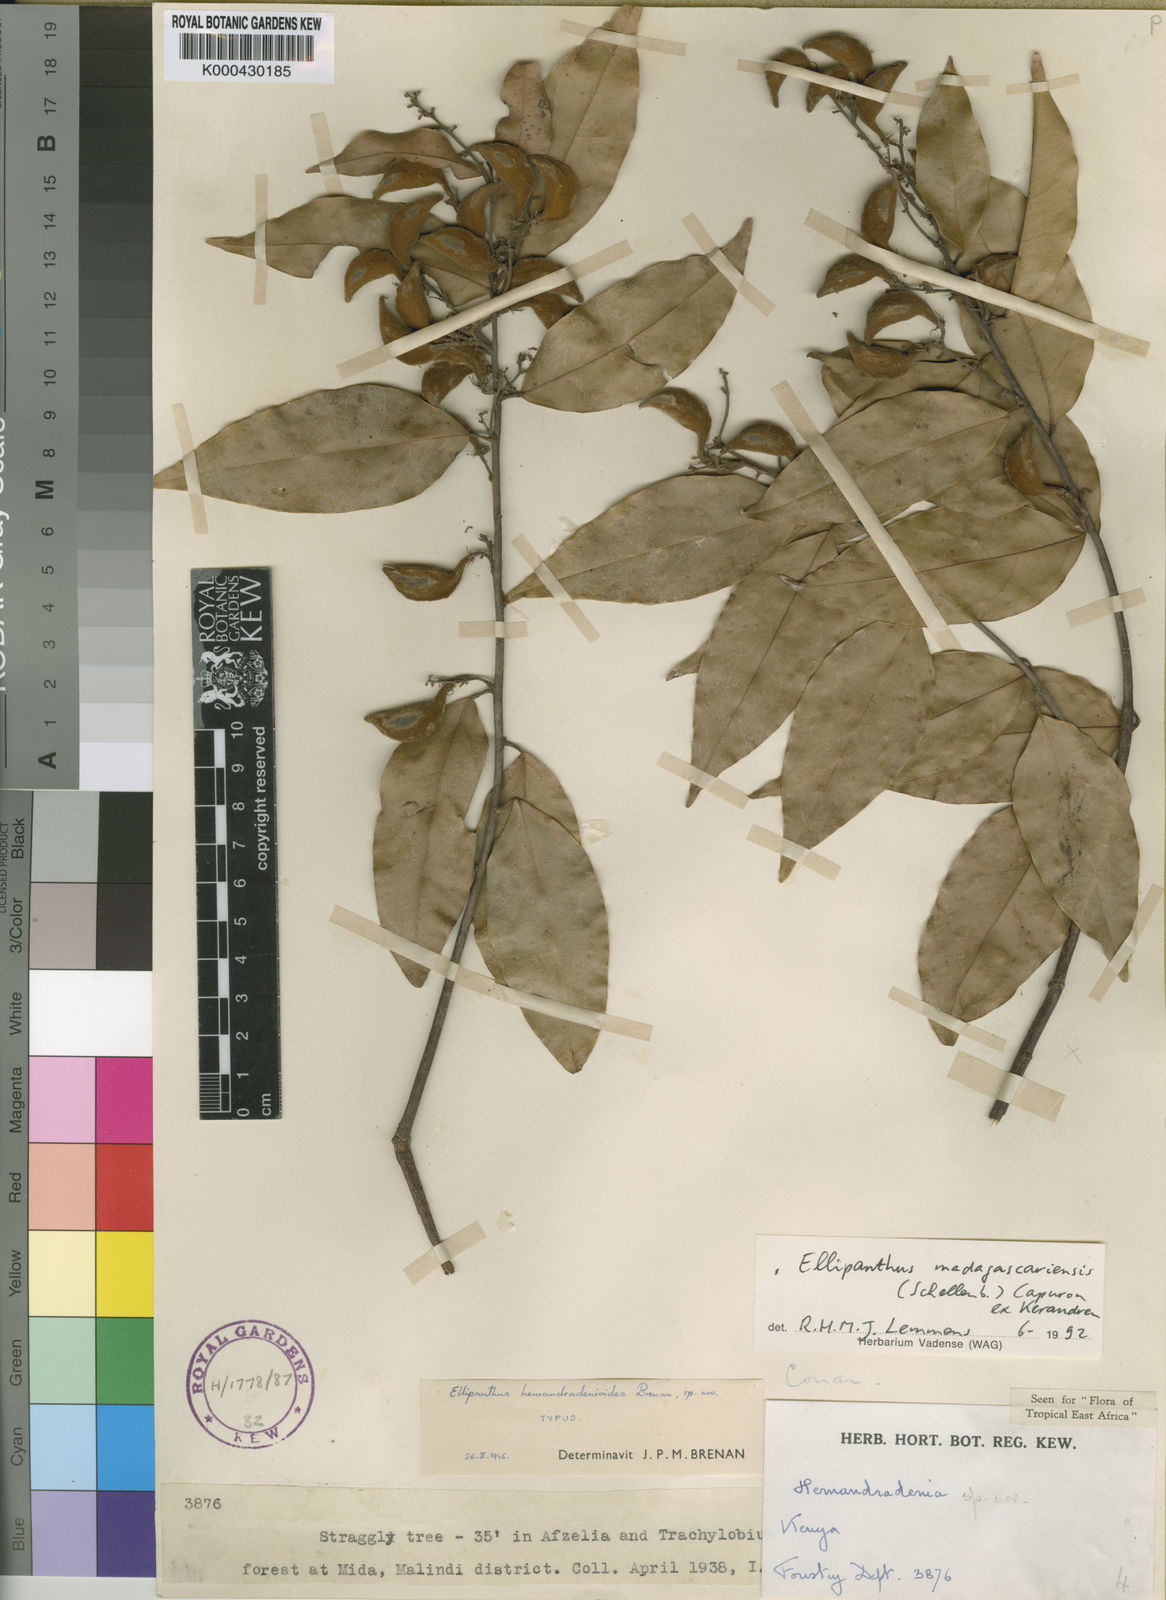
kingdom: Plantae
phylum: Tracheophyta
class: Magnoliopsida
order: Oxalidales
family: Connaraceae
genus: Ellipanthus
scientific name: Ellipanthus madagascariensis
